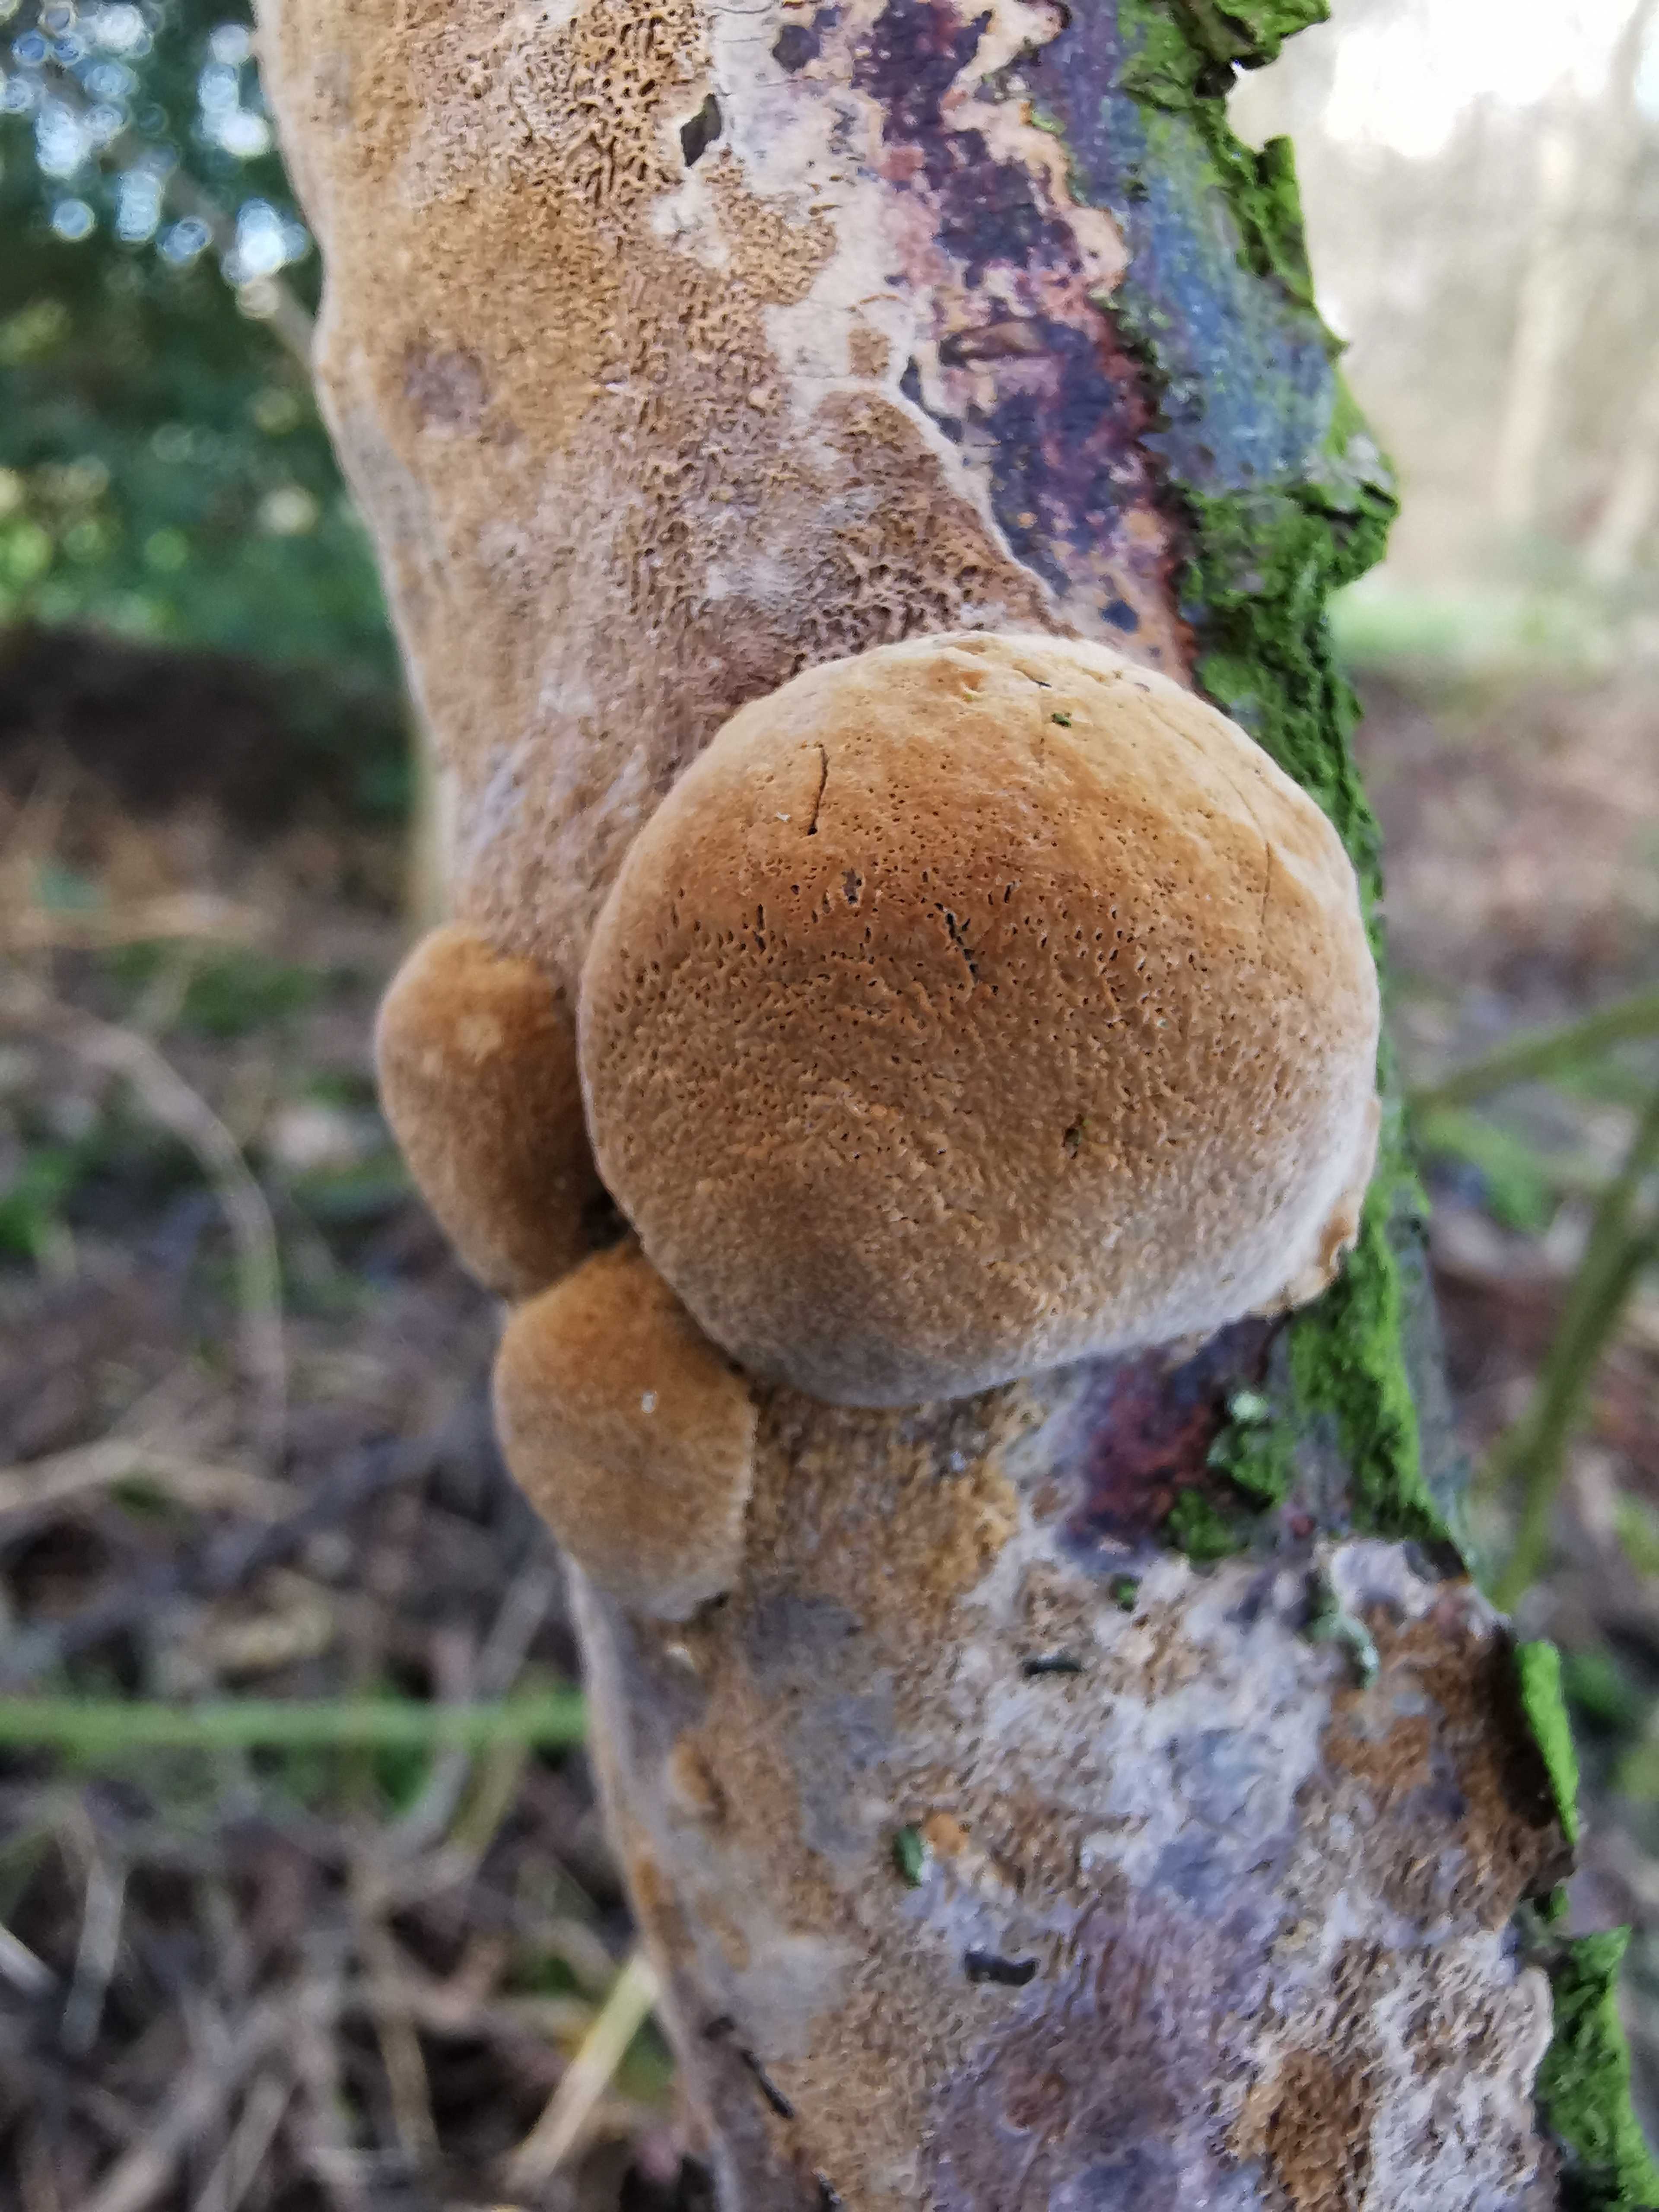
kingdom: Fungi
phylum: Basidiomycota
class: Agaricomycetes
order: Hymenochaetales
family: Hymenochaetaceae
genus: Phellinus
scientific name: Phellinus pomaceus
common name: blomme-ildporesvamp
